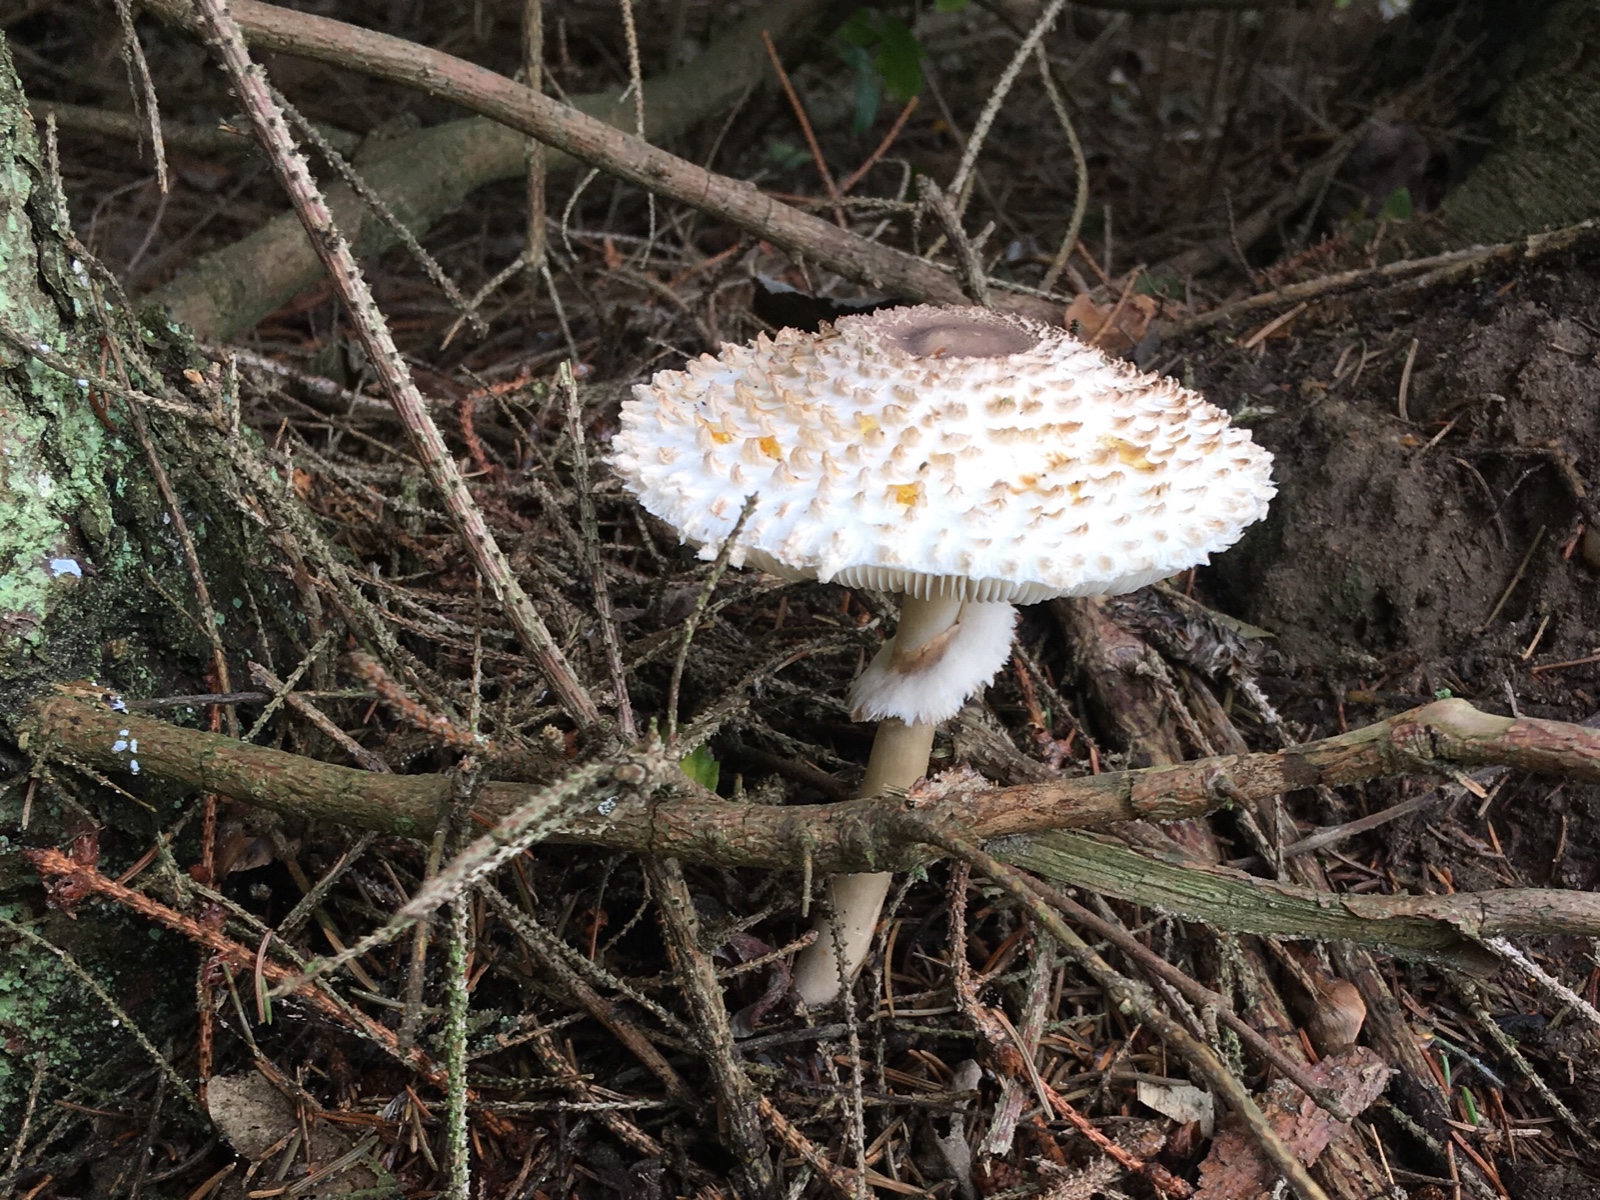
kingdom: Fungi
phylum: Basidiomycota
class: Agaricomycetes
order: Agaricales
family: Agaricaceae
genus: Leucoagaricus
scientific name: Leucoagaricus nympharum
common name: gran-silkehat
